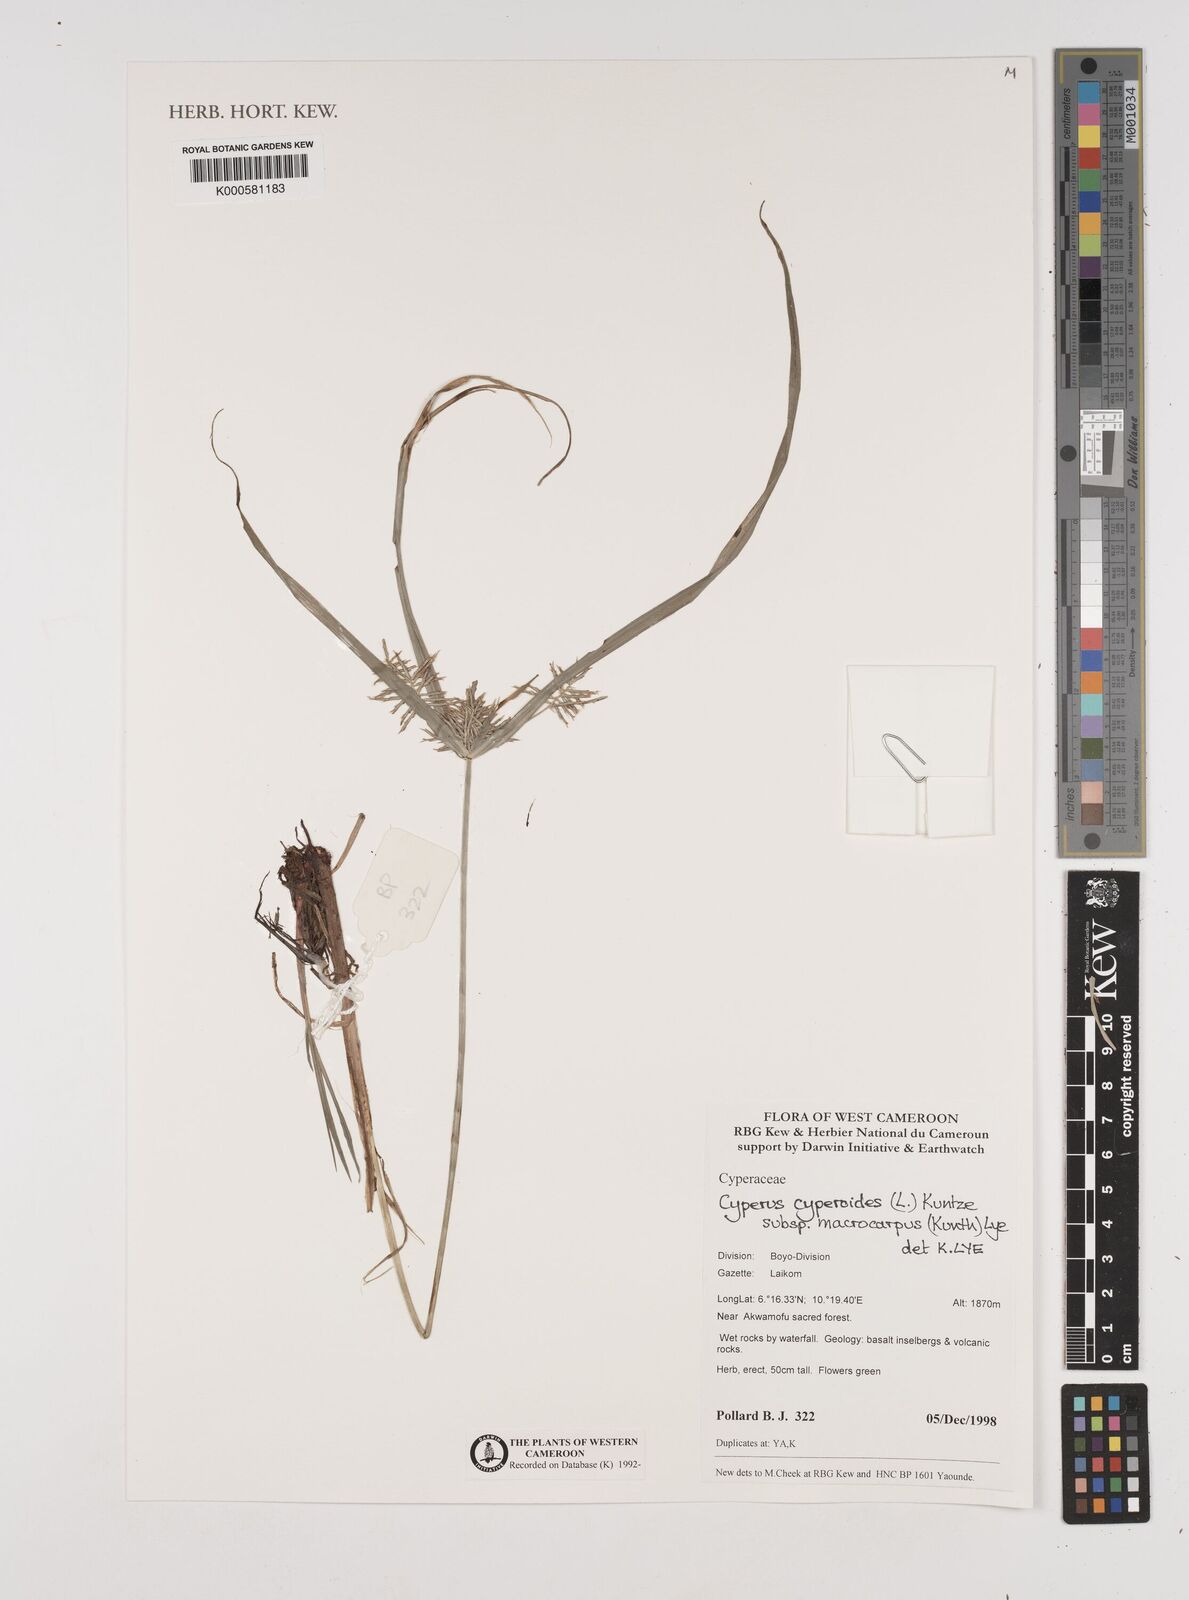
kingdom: Plantae
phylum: Tracheophyta
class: Liliopsida
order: Poales
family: Cyperaceae
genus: Cyperus
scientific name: Cyperus macrocarpus
